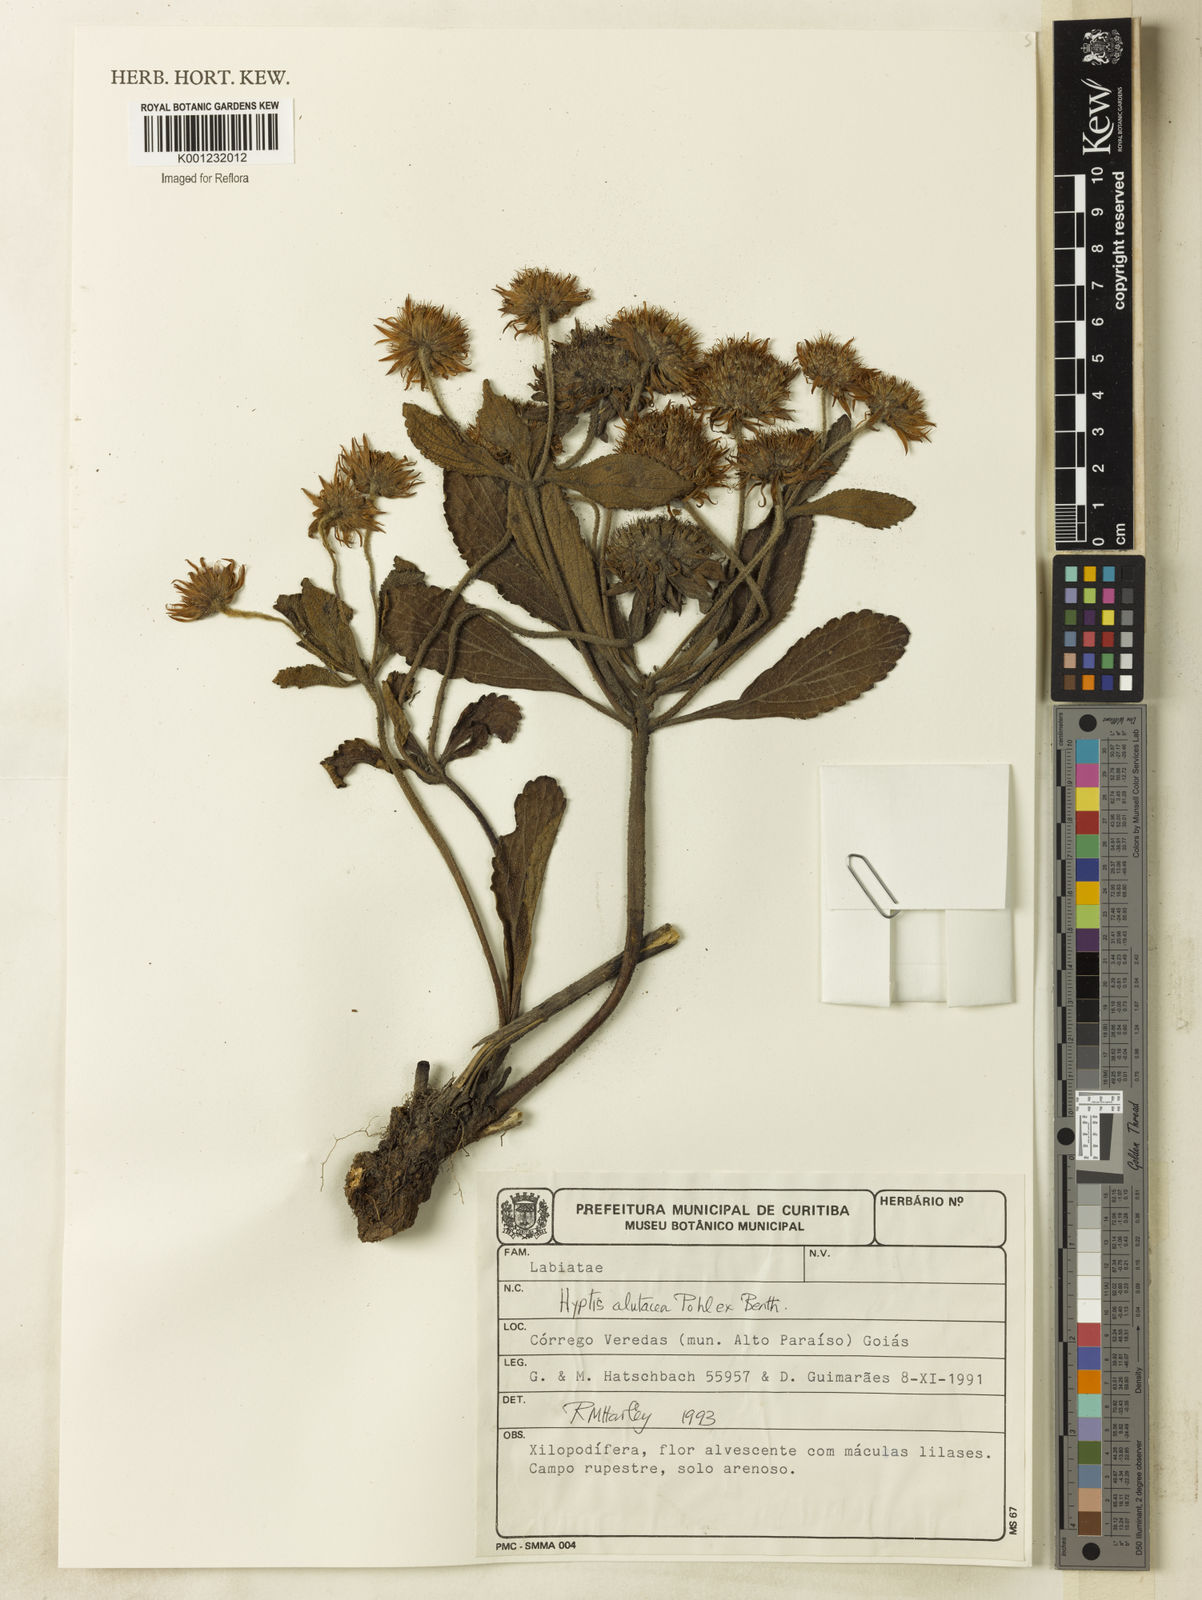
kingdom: Plantae
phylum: Tracheophyta
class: Magnoliopsida
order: Lamiales
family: Lamiaceae
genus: Hyptis
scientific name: Hyptis alutacea
